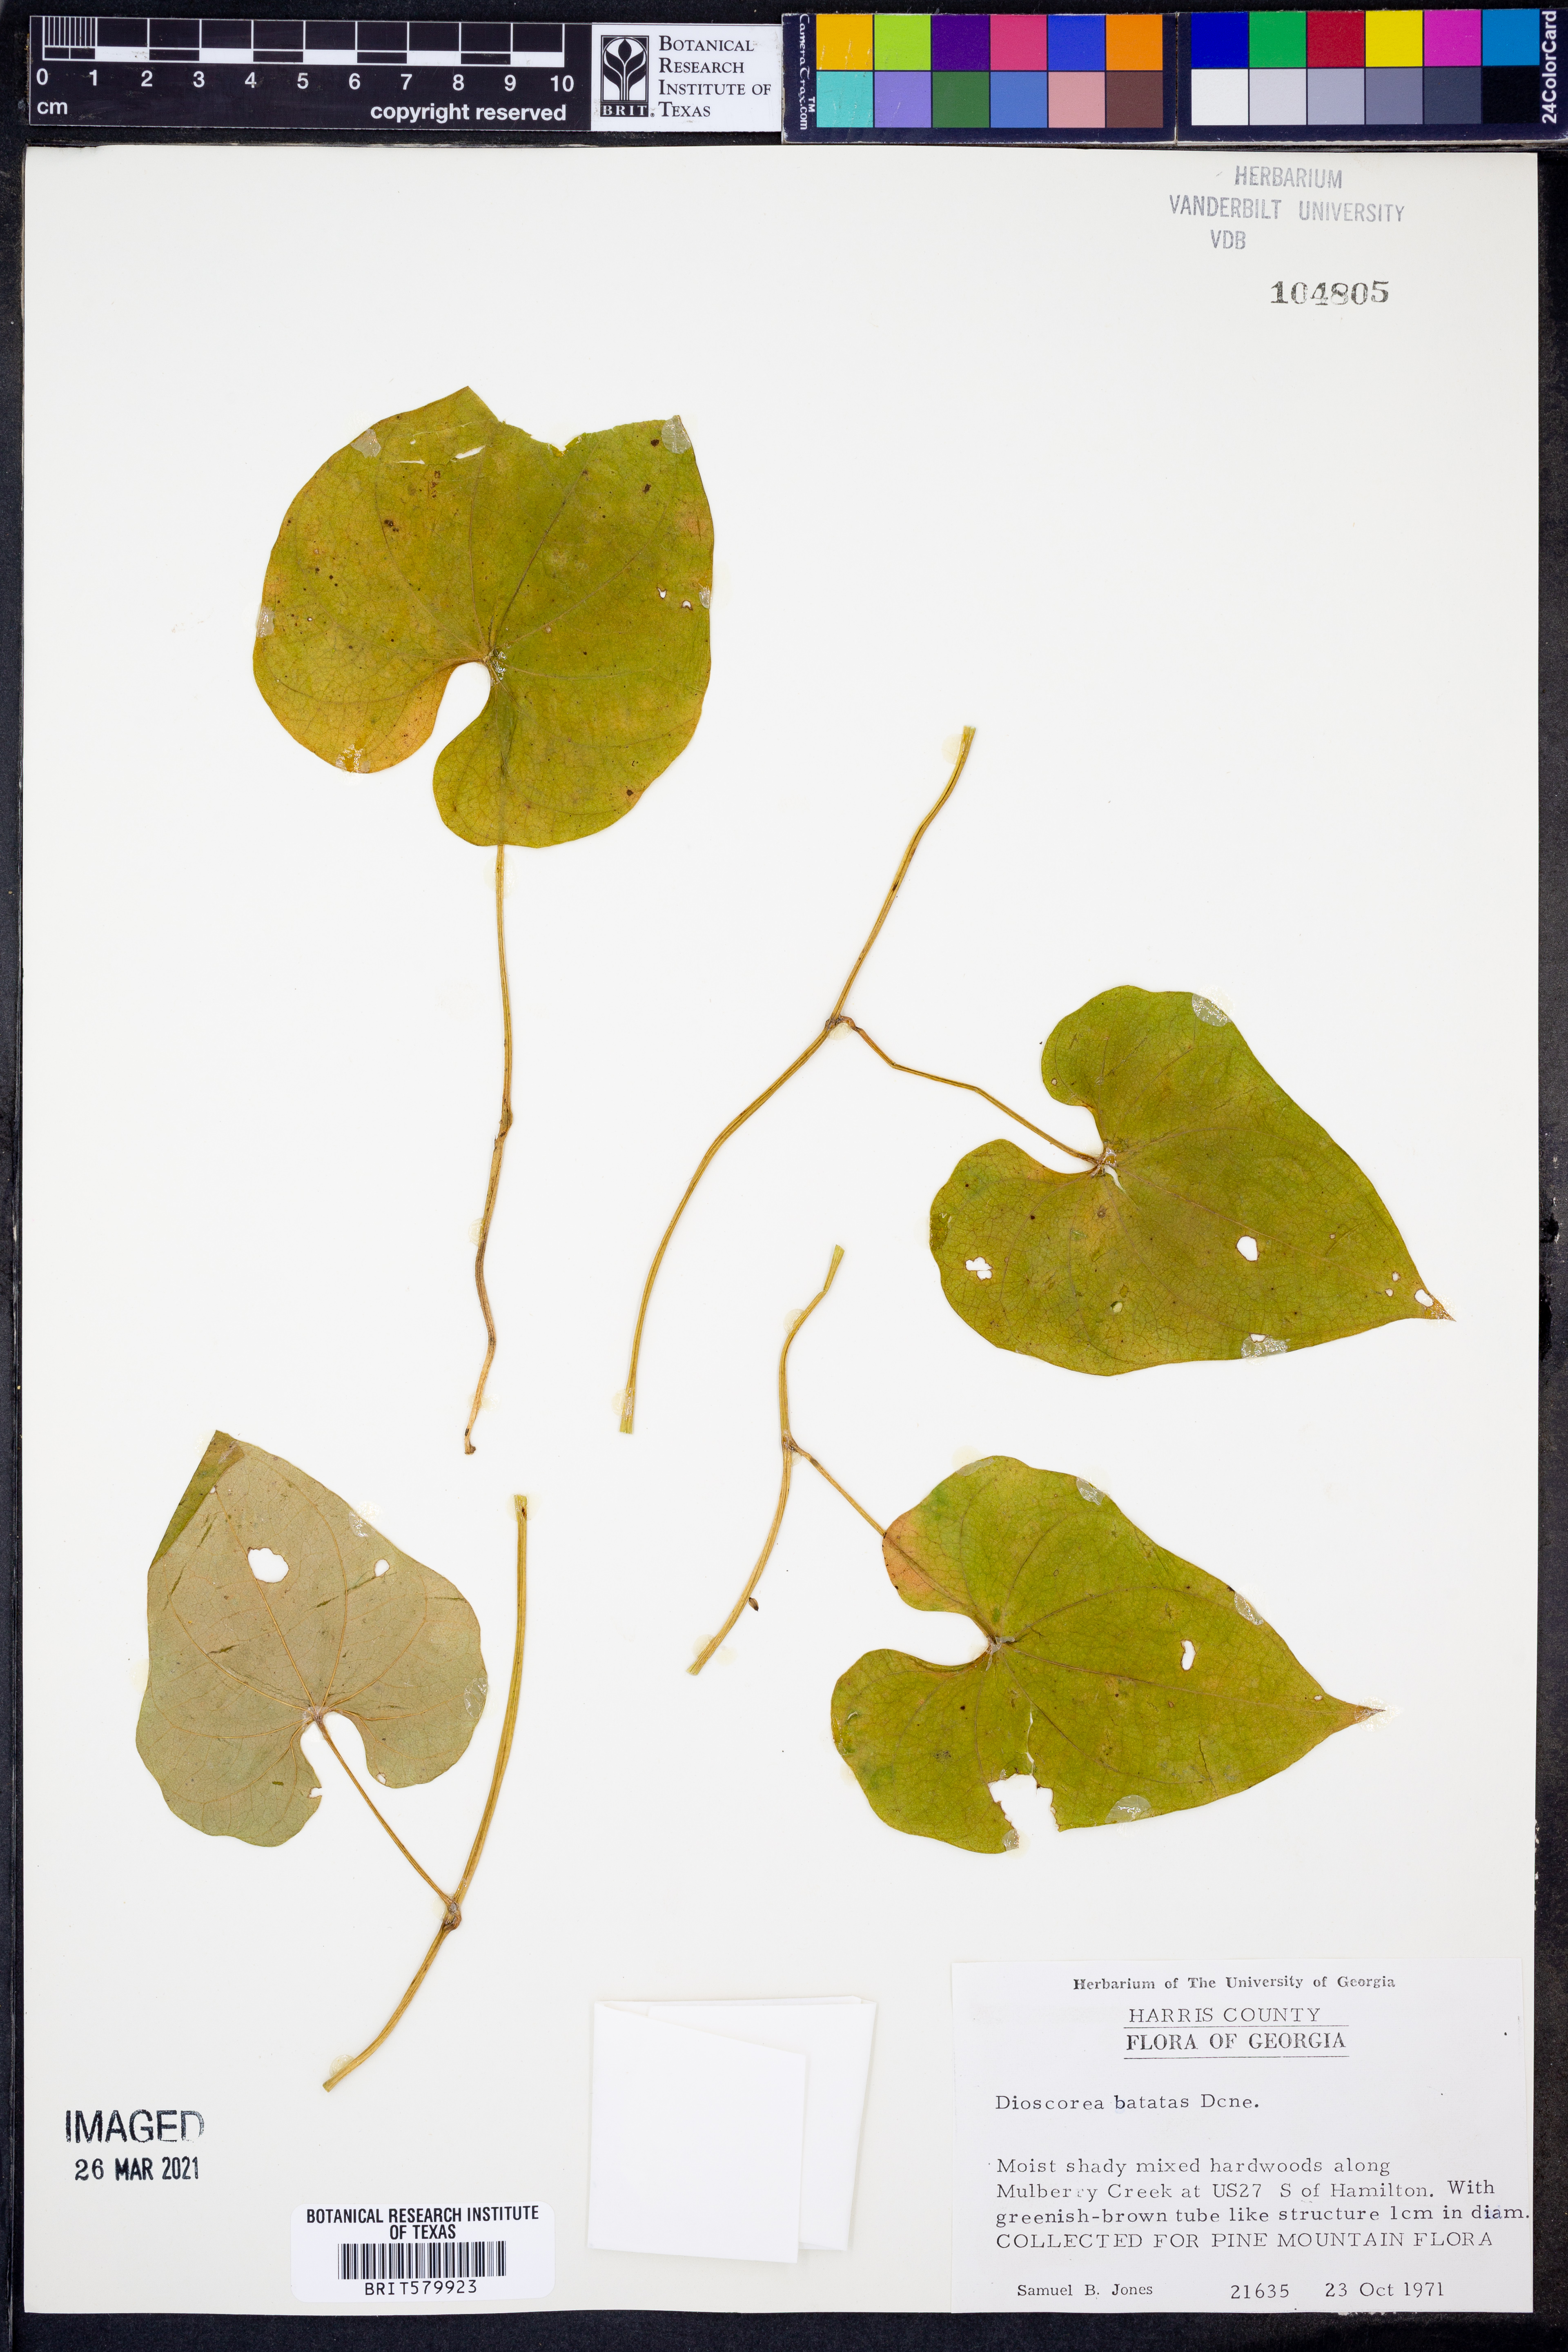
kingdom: Plantae
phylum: Tracheophyta
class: Liliopsida
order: Dioscoreales
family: Dioscoreaceae
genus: Dioscorea
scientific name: Dioscorea polystachya
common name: Chinese yam
